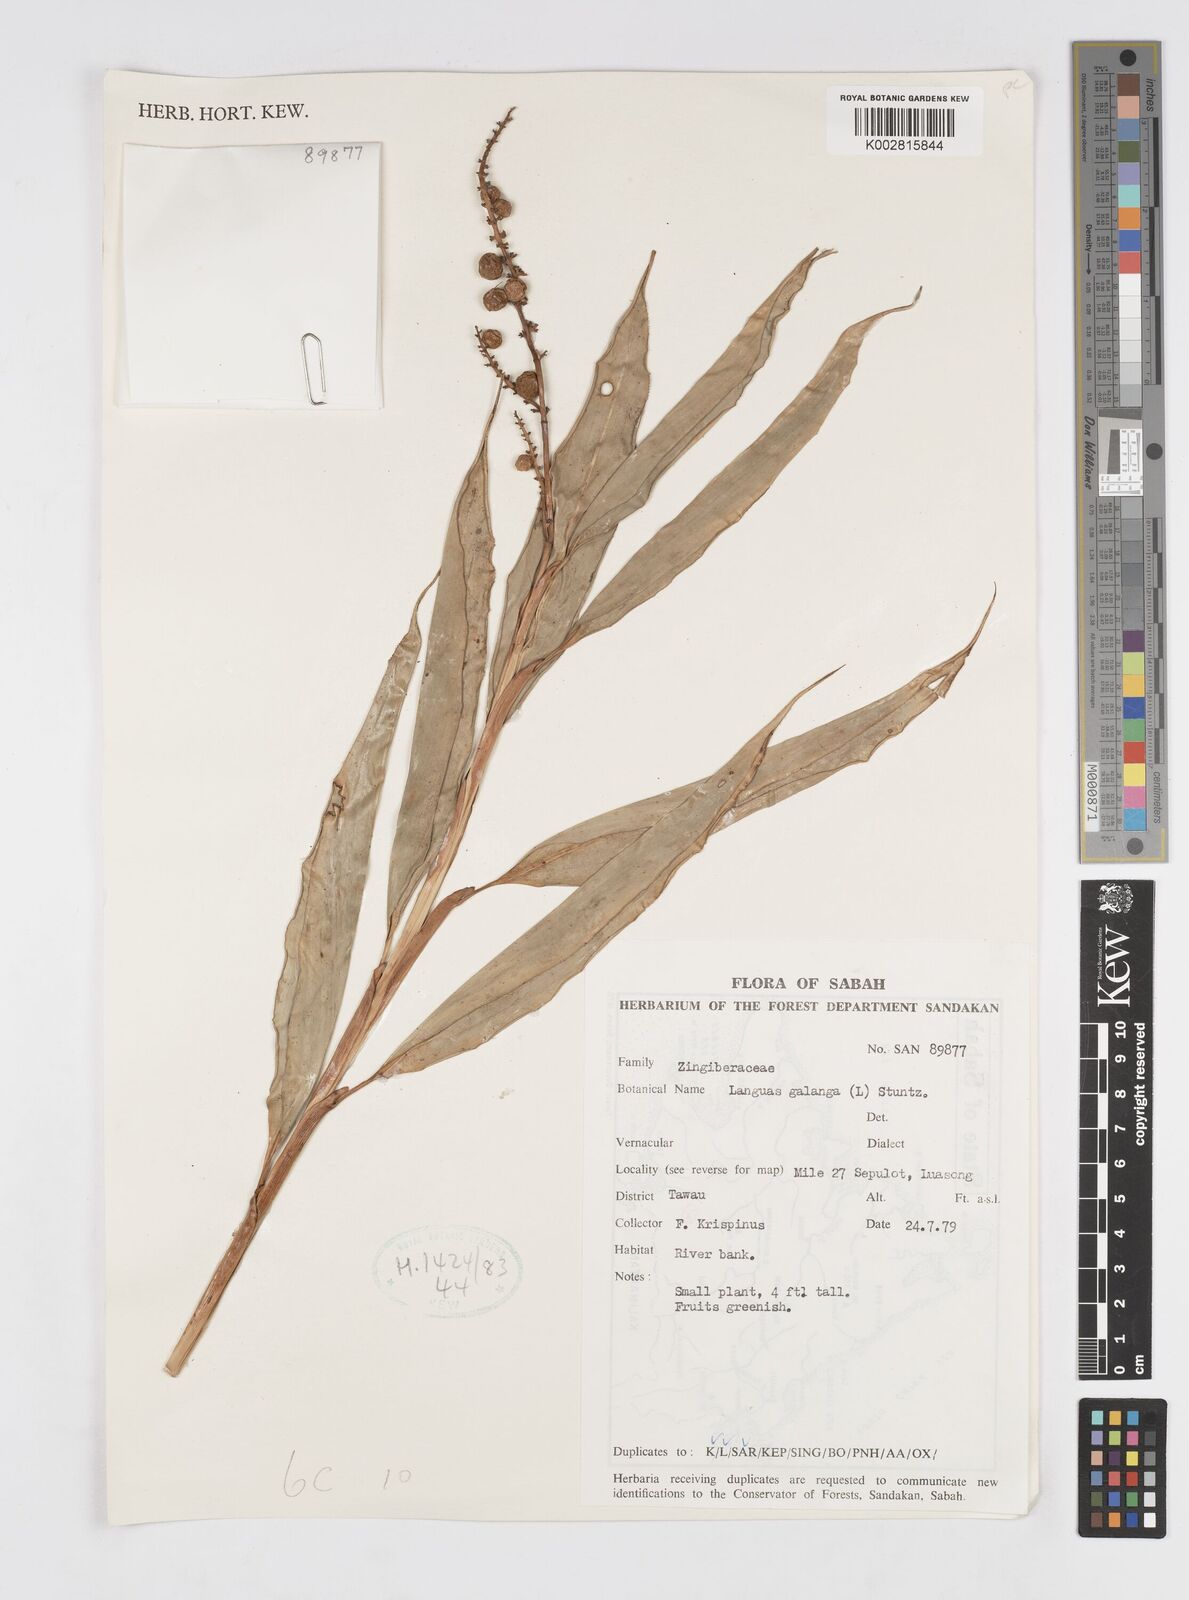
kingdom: Plantae
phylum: Tracheophyta
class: Liliopsida
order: Zingiberales
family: Zingiberaceae
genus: Alpinia
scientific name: Alpinia aquatica
